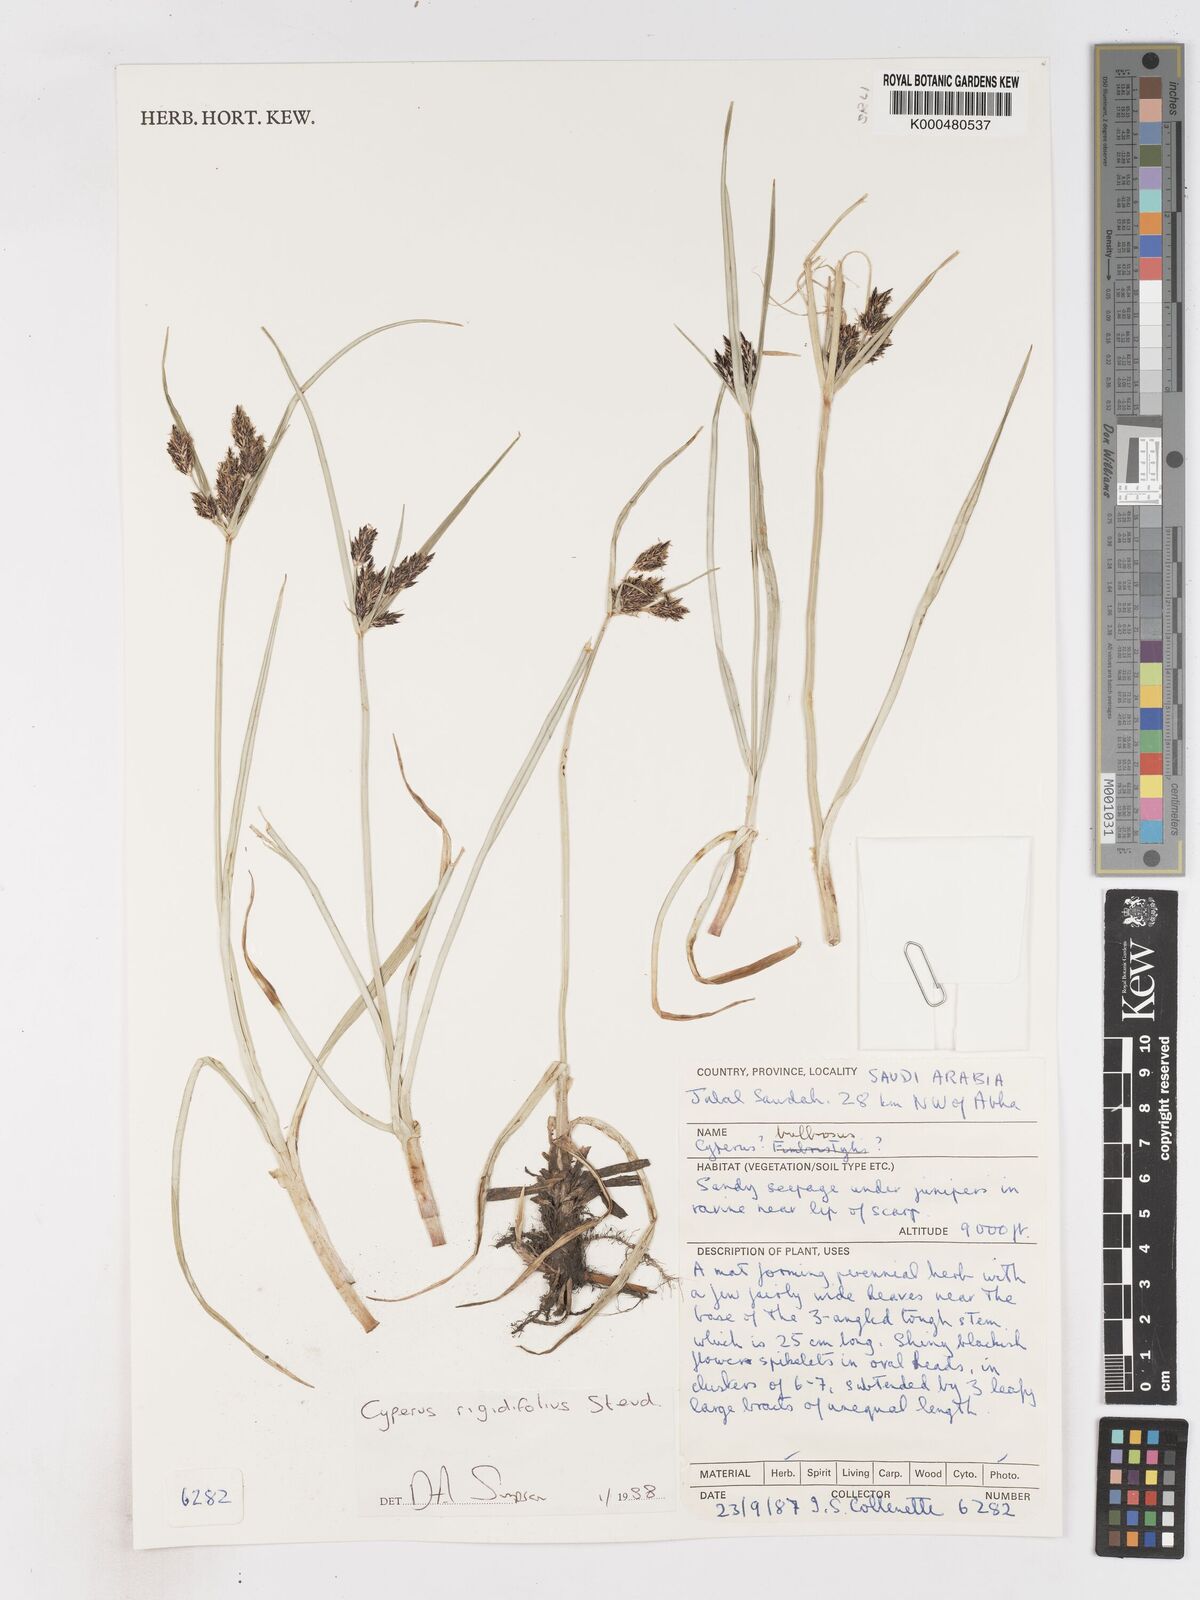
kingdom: Plantae
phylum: Tracheophyta
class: Liliopsida
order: Poales
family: Cyperaceae
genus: Cyperus
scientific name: Cyperus rigidifolius
